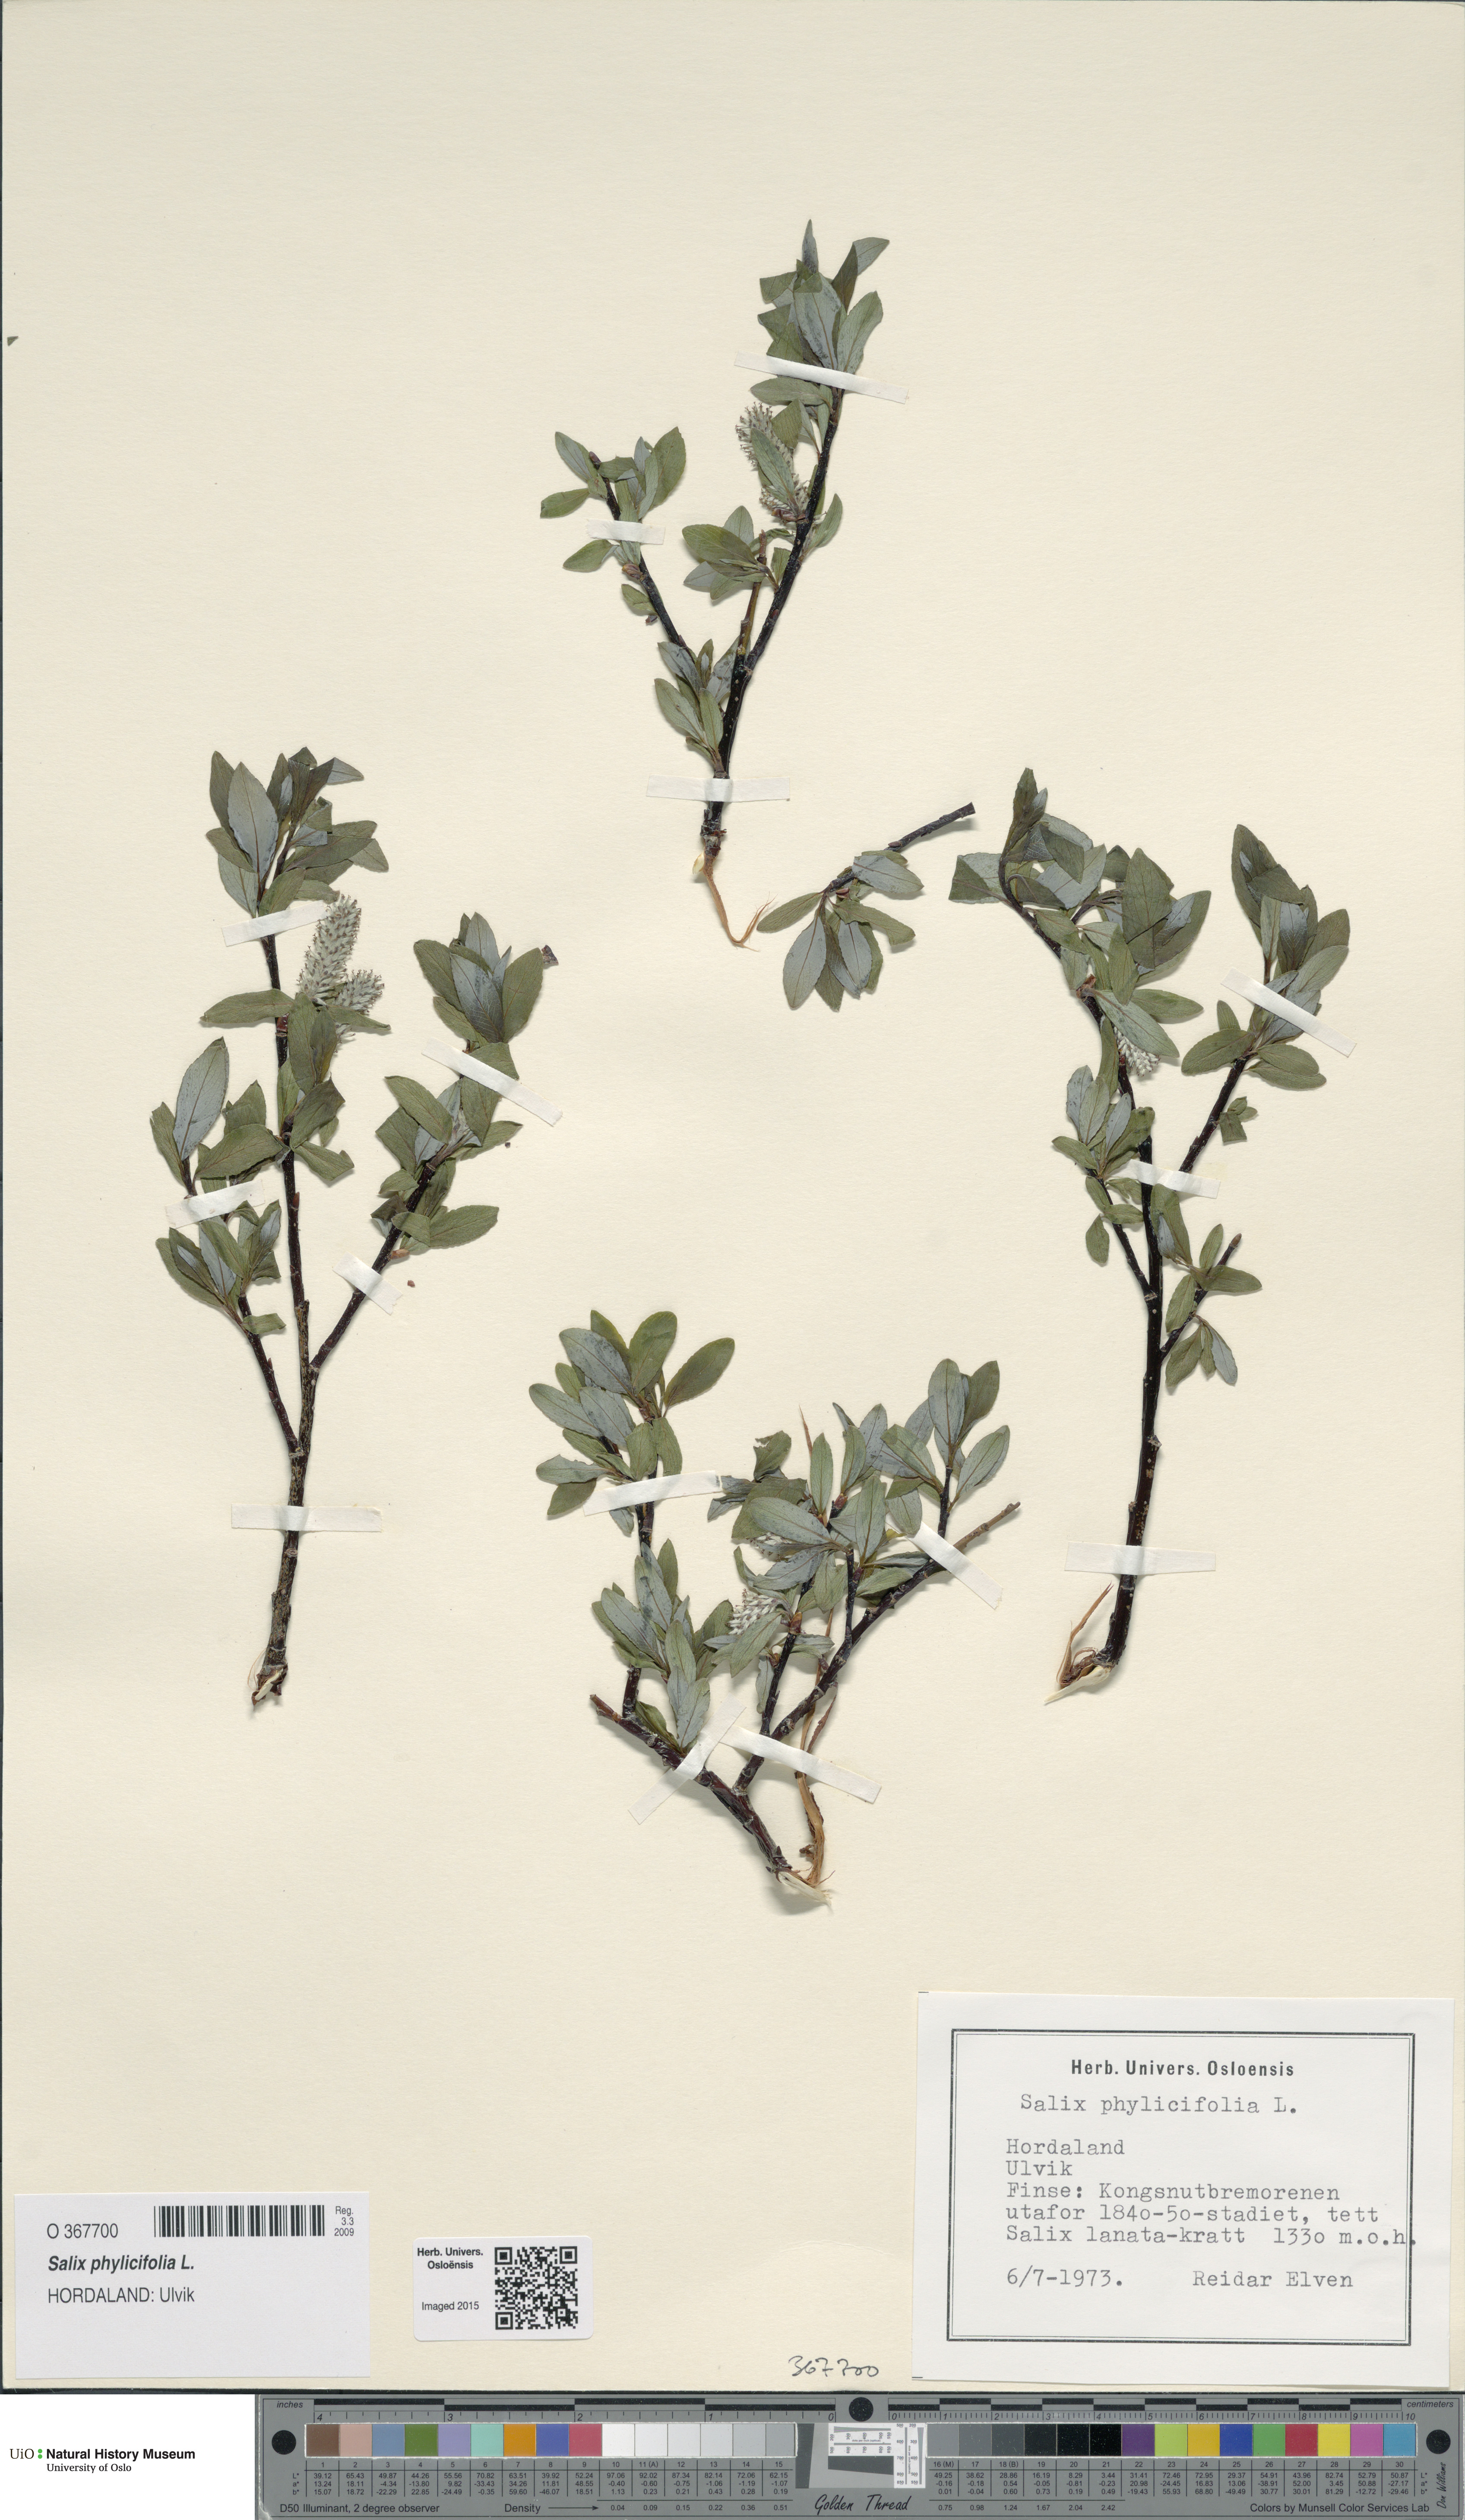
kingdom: Plantae
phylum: Tracheophyta
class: Magnoliopsida
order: Malpighiales
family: Salicaceae
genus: Salix
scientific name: Salix phylicifolia
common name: Tea-leaved willow
